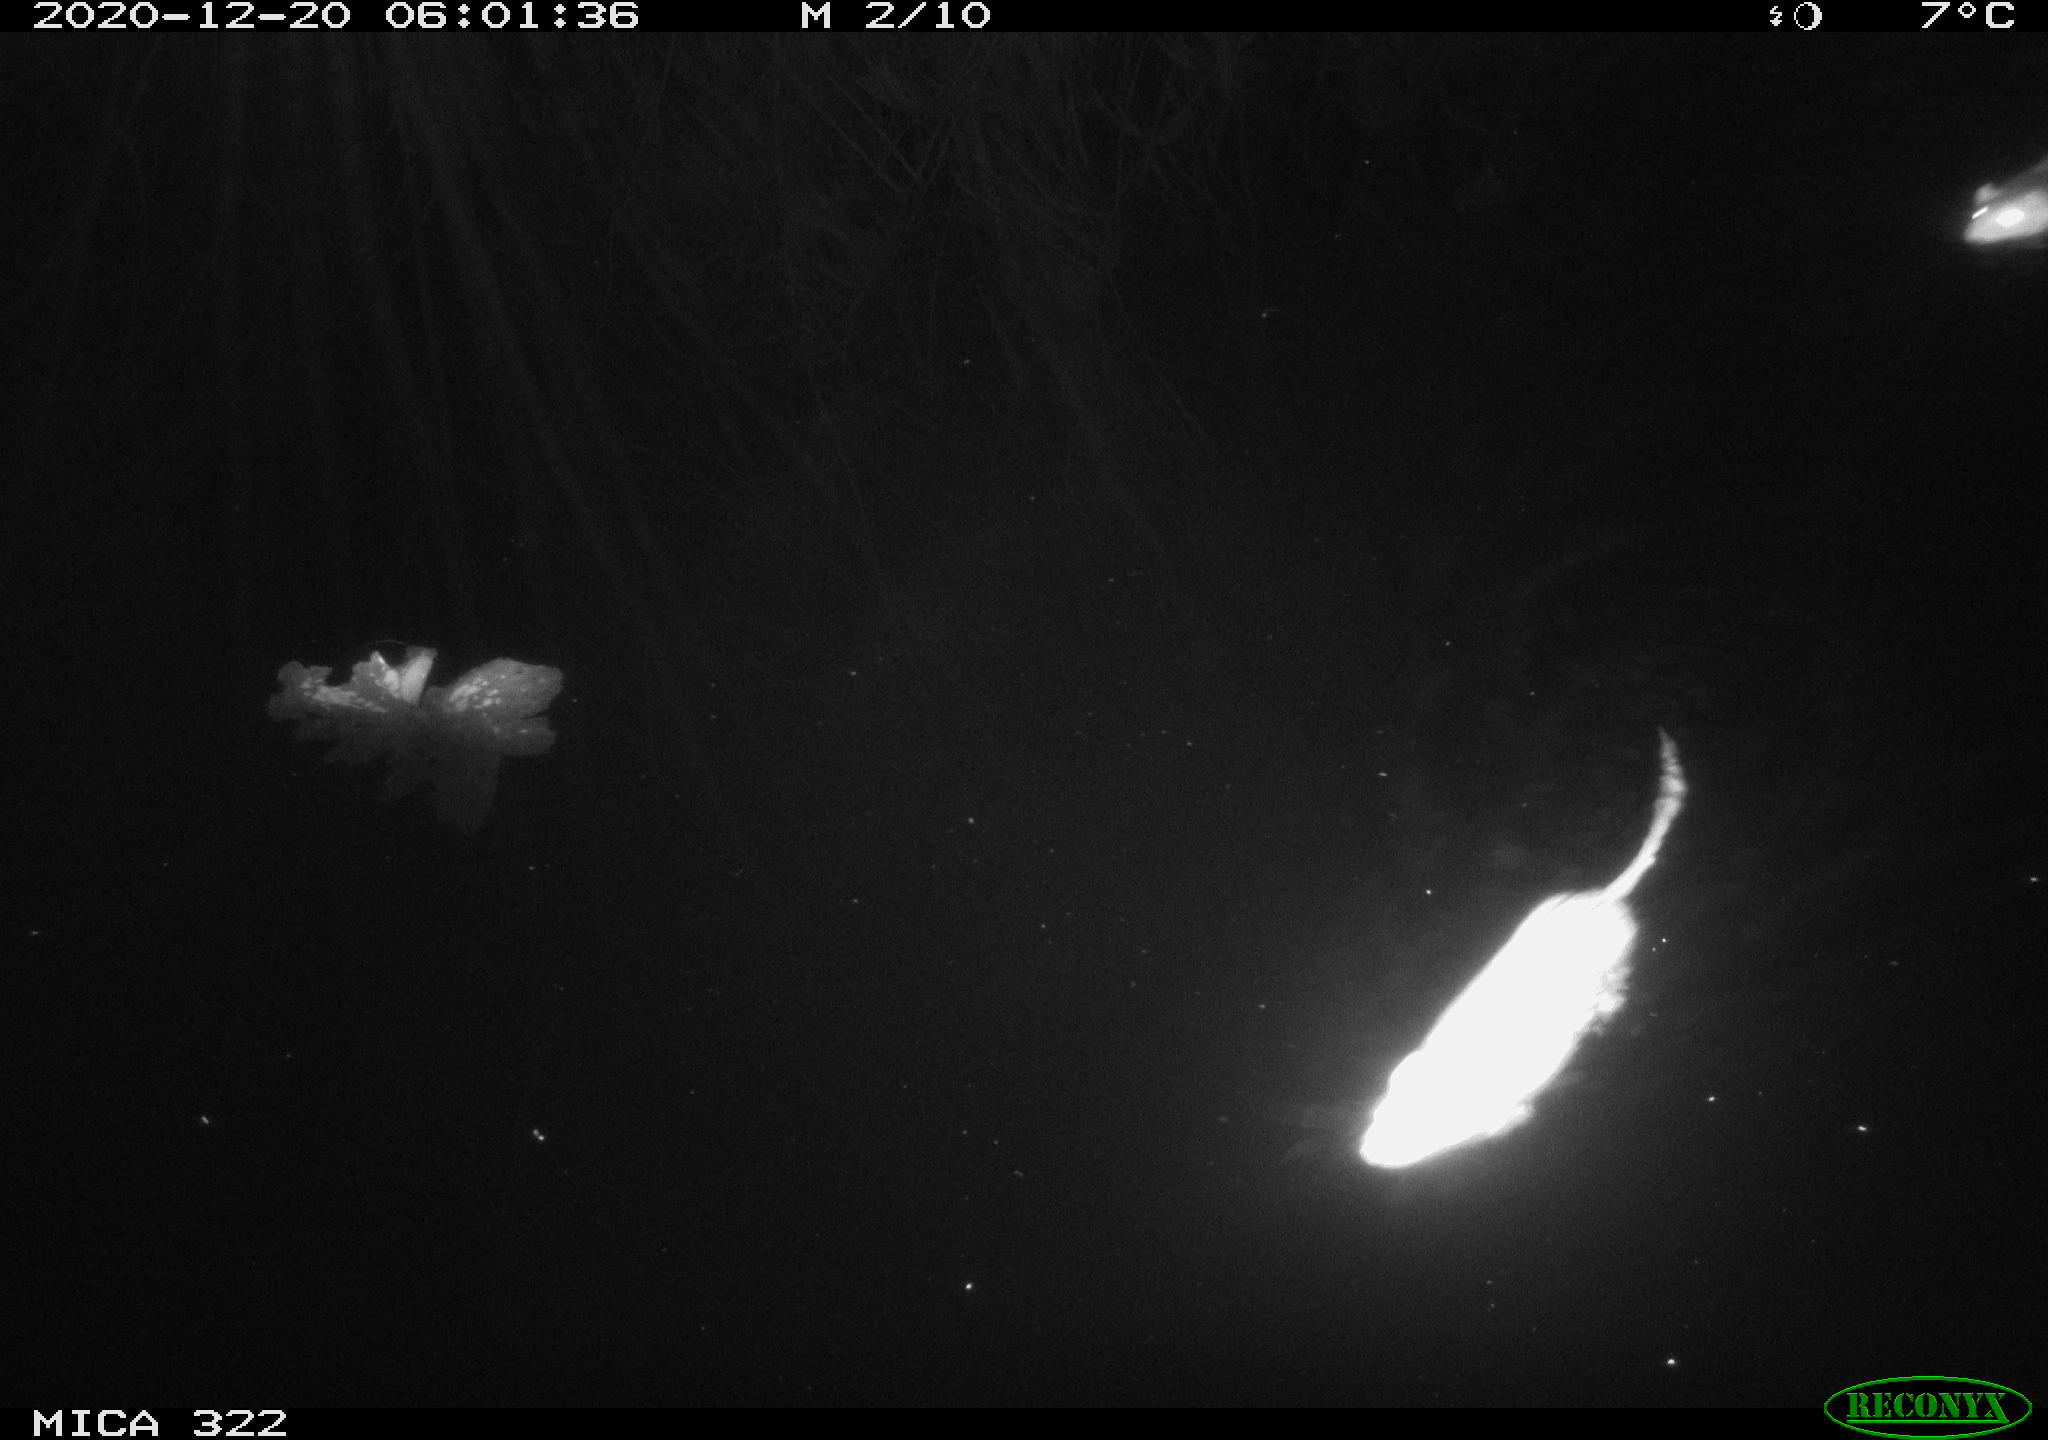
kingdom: Animalia
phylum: Chordata
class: Mammalia
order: Rodentia
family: Cricetidae
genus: Ondatra
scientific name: Ondatra zibethicus
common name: Muskrat
